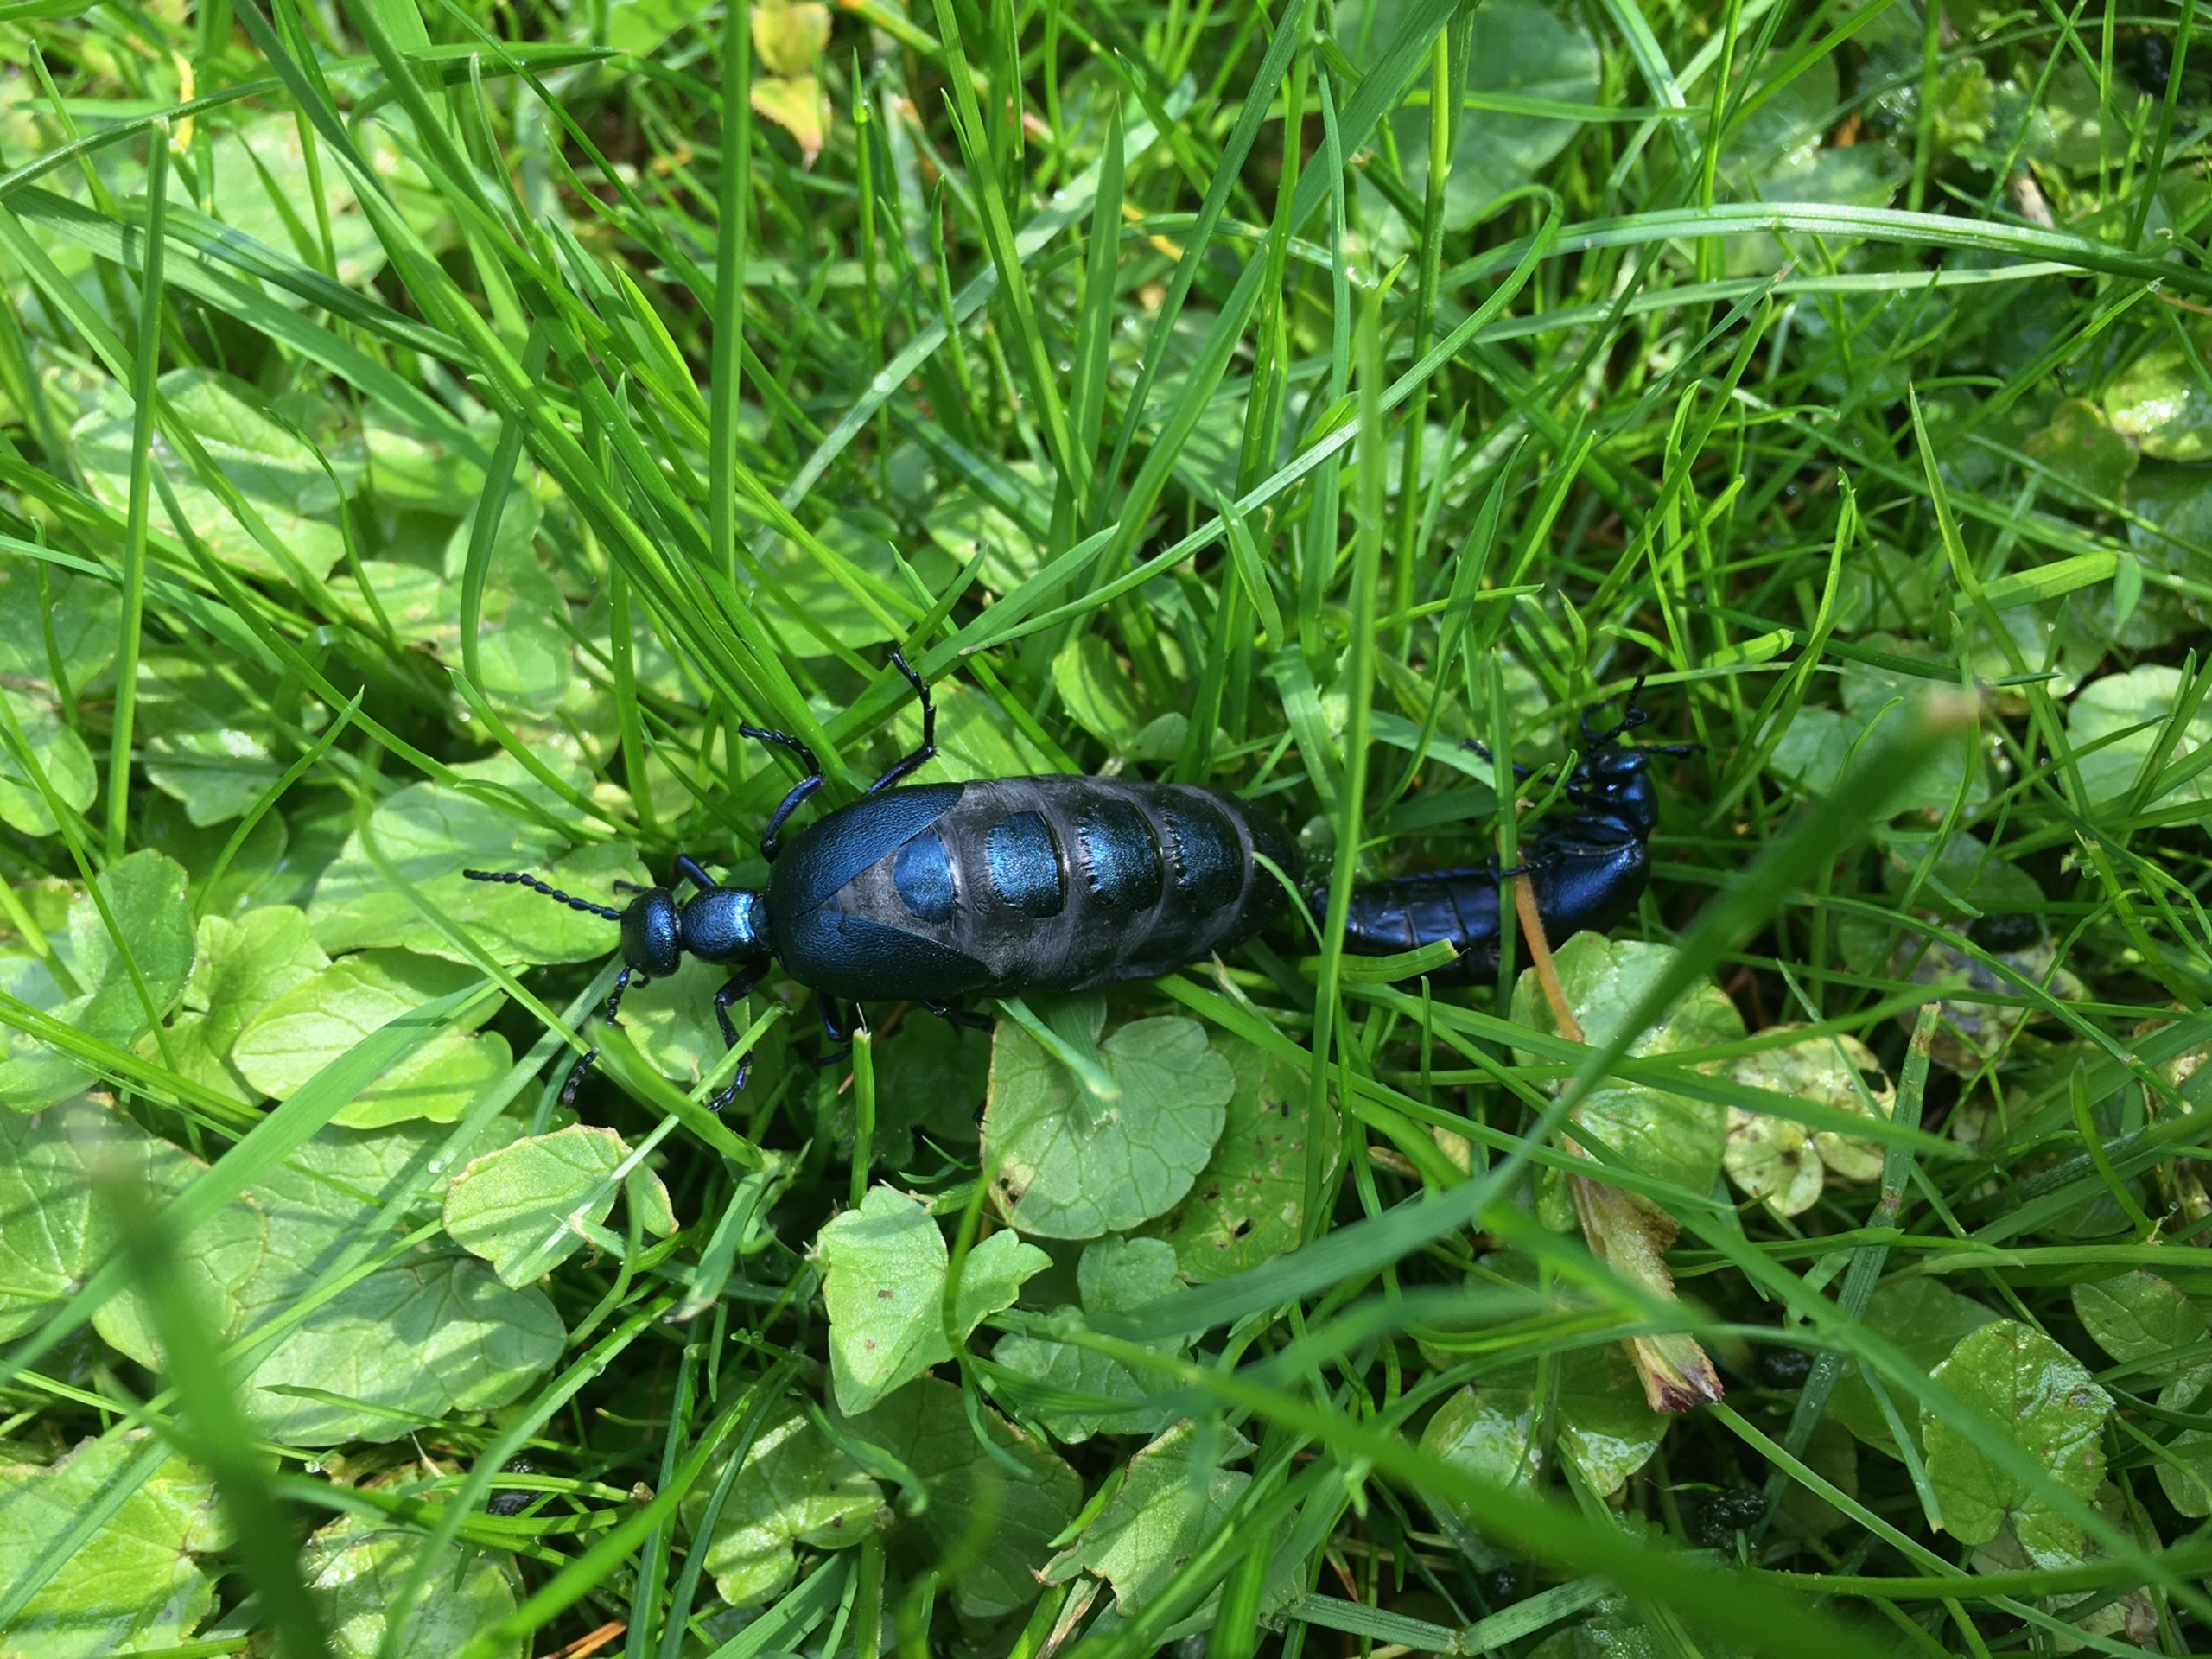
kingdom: Animalia
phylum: Arthropoda
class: Insecta
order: Coleoptera
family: Meloidae
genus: Meloe
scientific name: Meloe violaceus
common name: Blå oliebille
